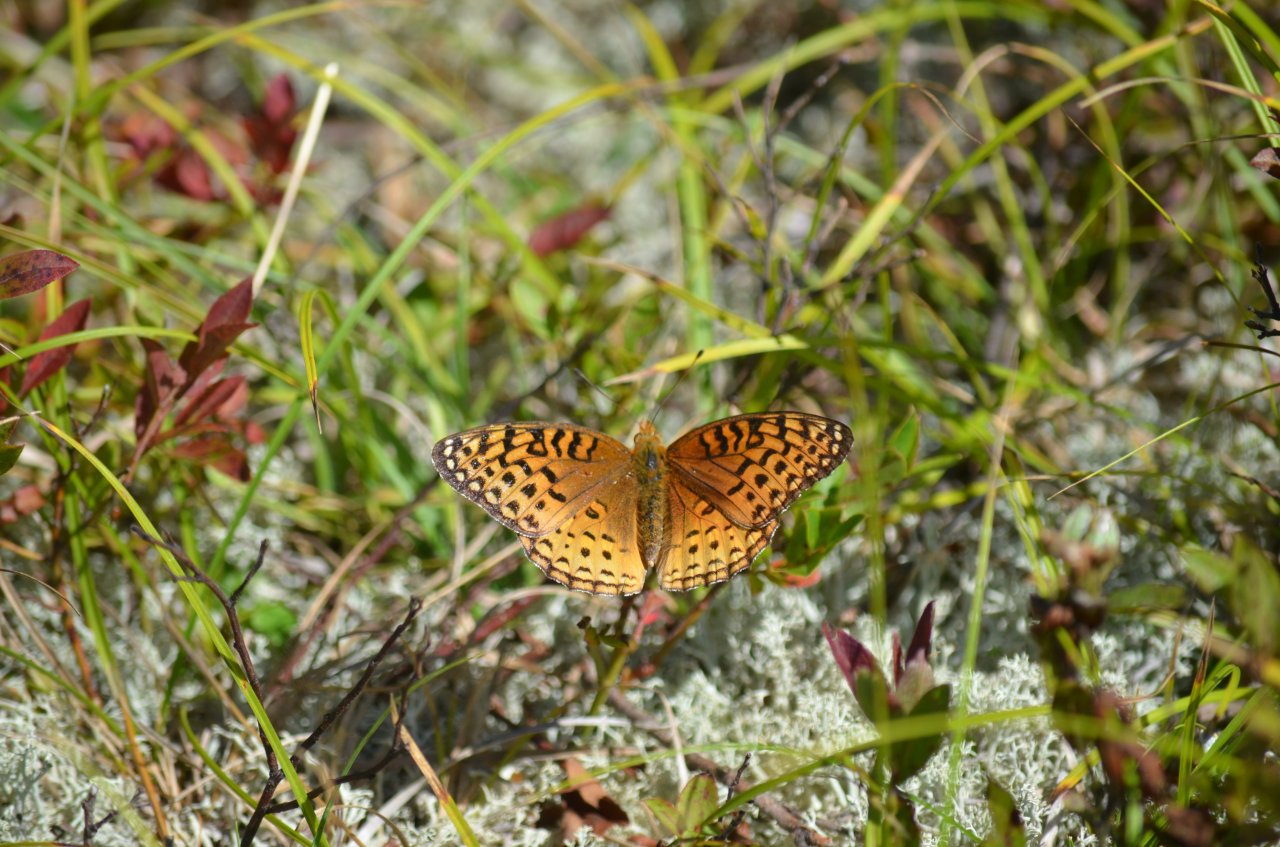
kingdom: Animalia
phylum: Arthropoda
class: Insecta
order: Lepidoptera
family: Nymphalidae
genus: Speyeria
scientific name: Speyeria aphrodite
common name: Aphrodite Fritillary
